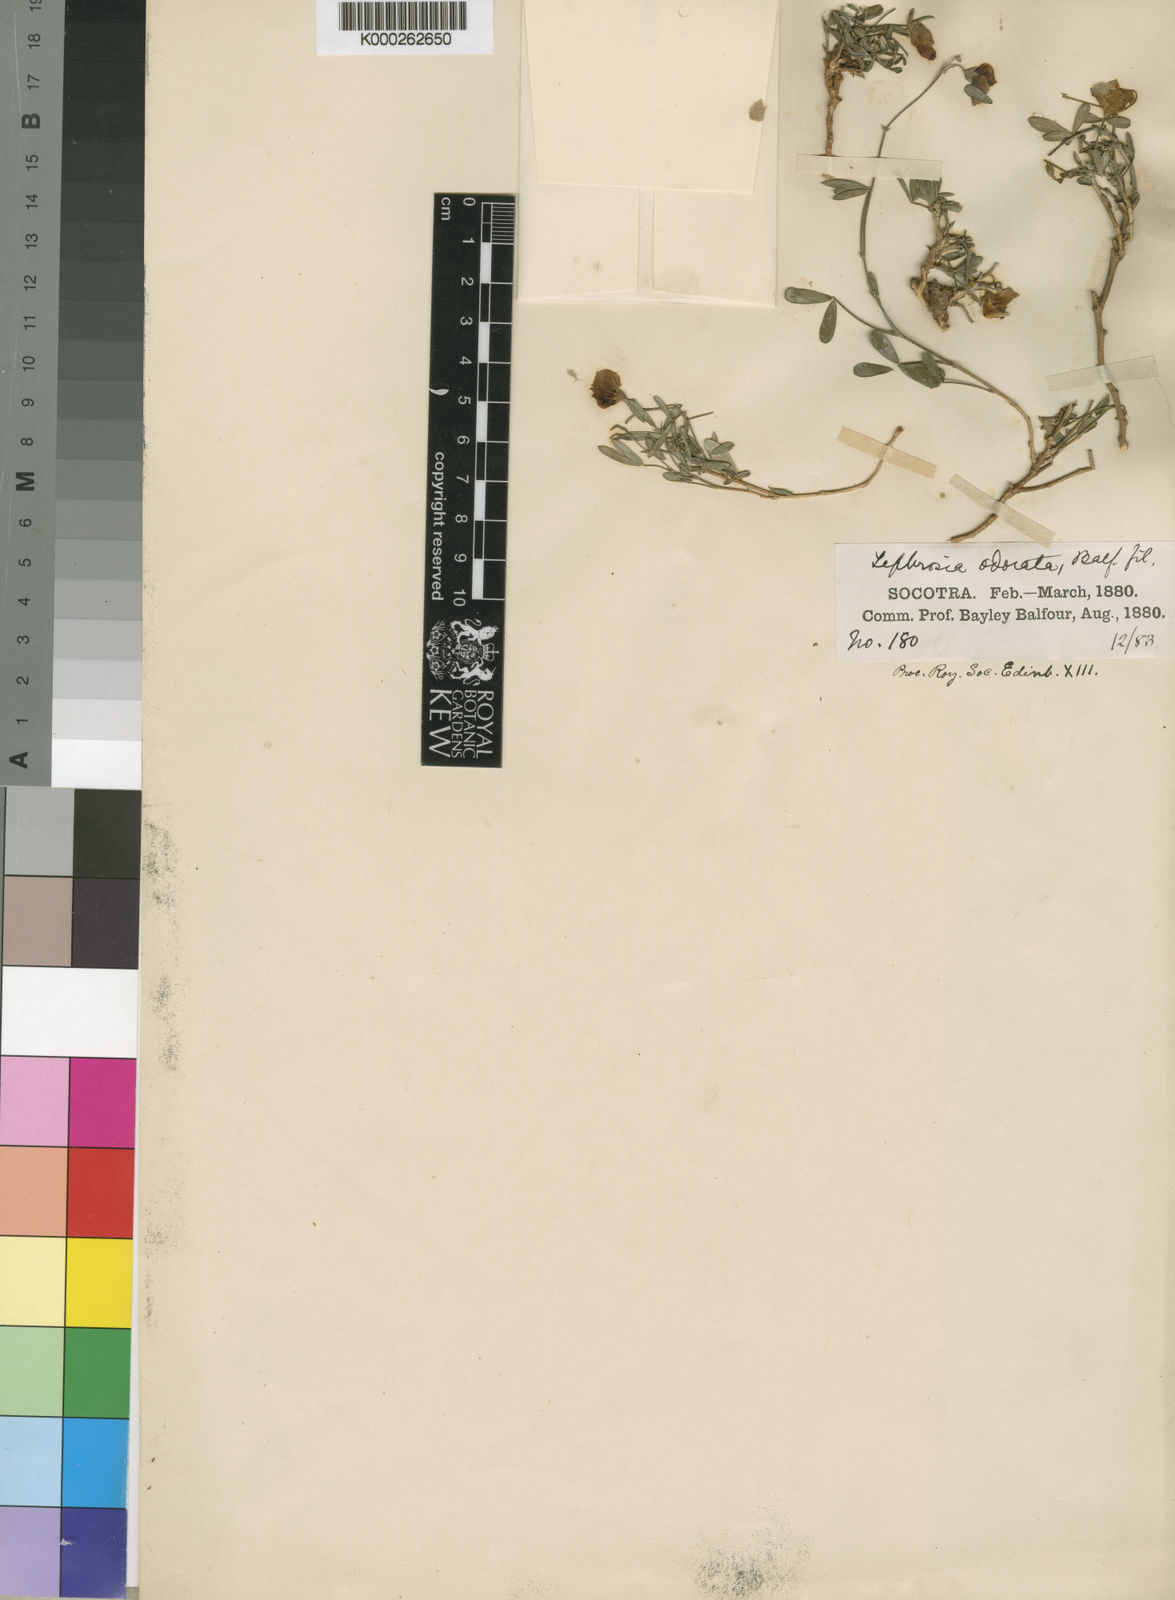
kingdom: Plantae
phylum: Tracheophyta
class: Magnoliopsida
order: Fabales
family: Fabaceae
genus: Tephrosia
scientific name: Tephrosia odorata
